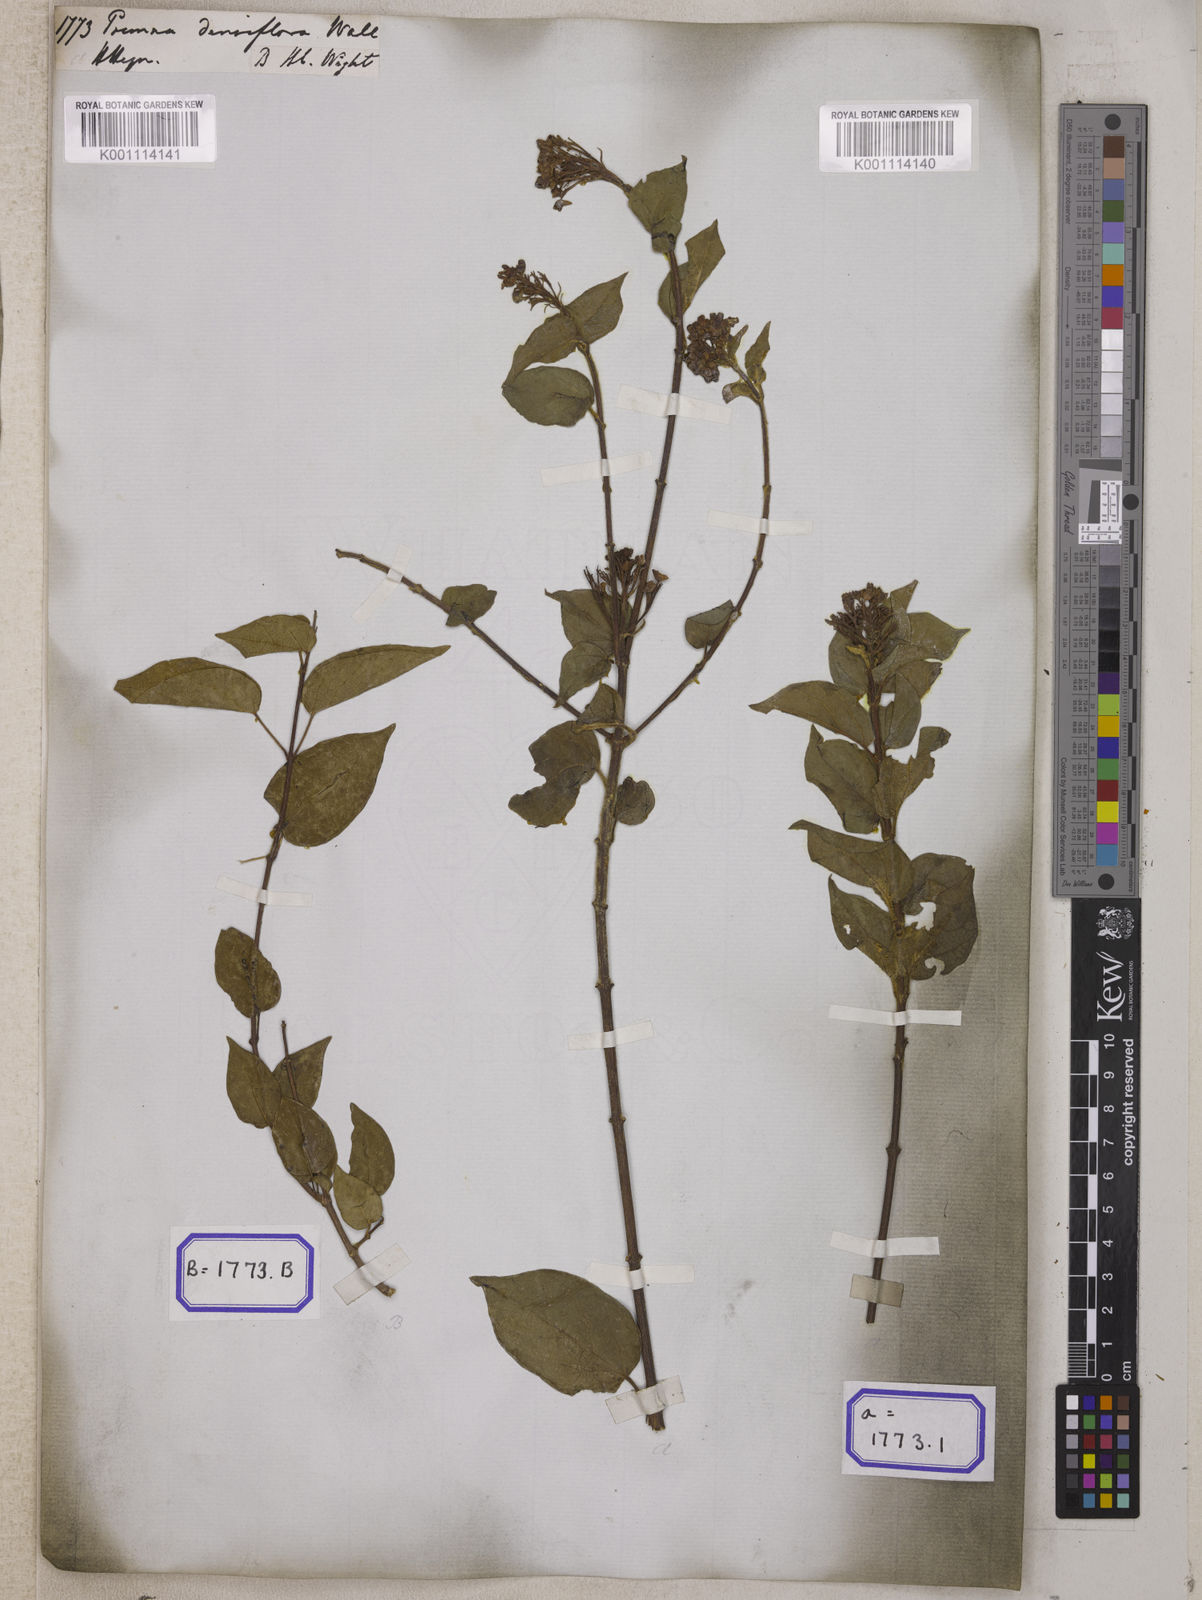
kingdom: Plantae
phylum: Tracheophyta
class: Magnoliopsida
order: Lamiales
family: Lamiaceae
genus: Premna
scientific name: Premna
